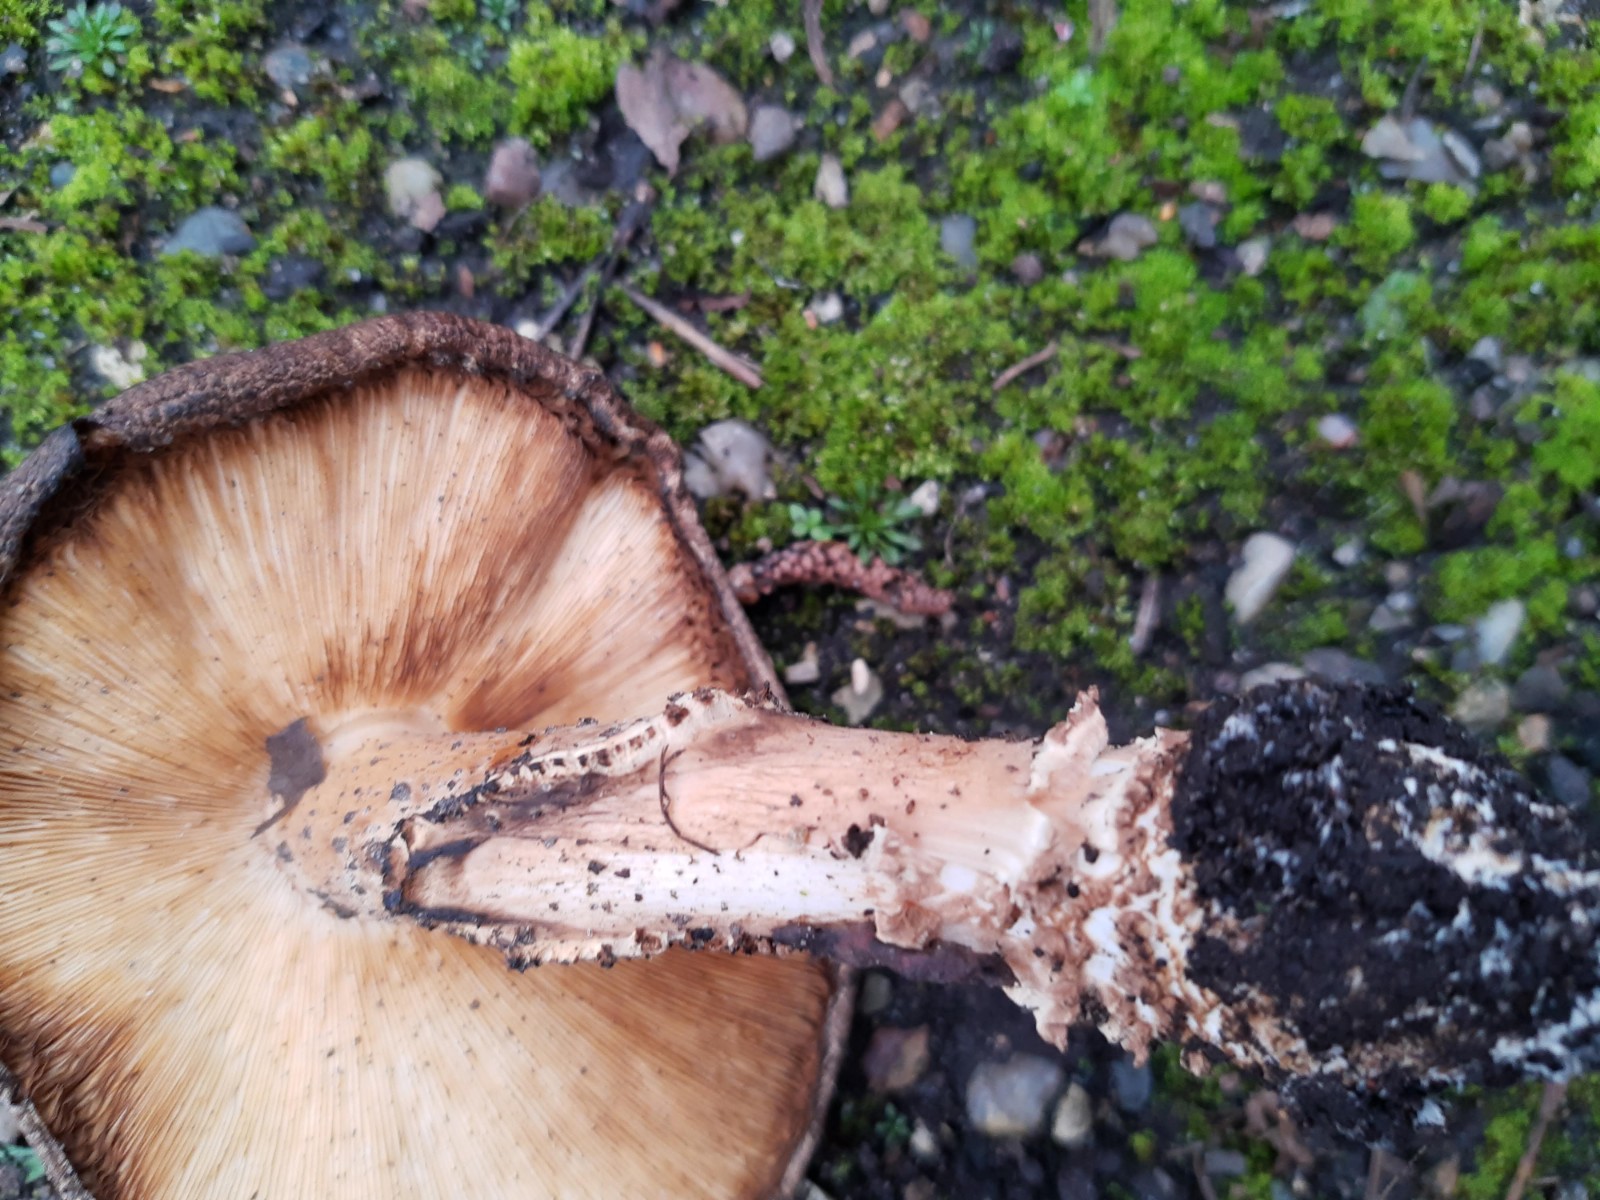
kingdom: Fungi
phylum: Basidiomycota
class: Agaricomycetes
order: Agaricales
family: Agaricaceae
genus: Echinoderma
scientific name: Echinoderma asperum
